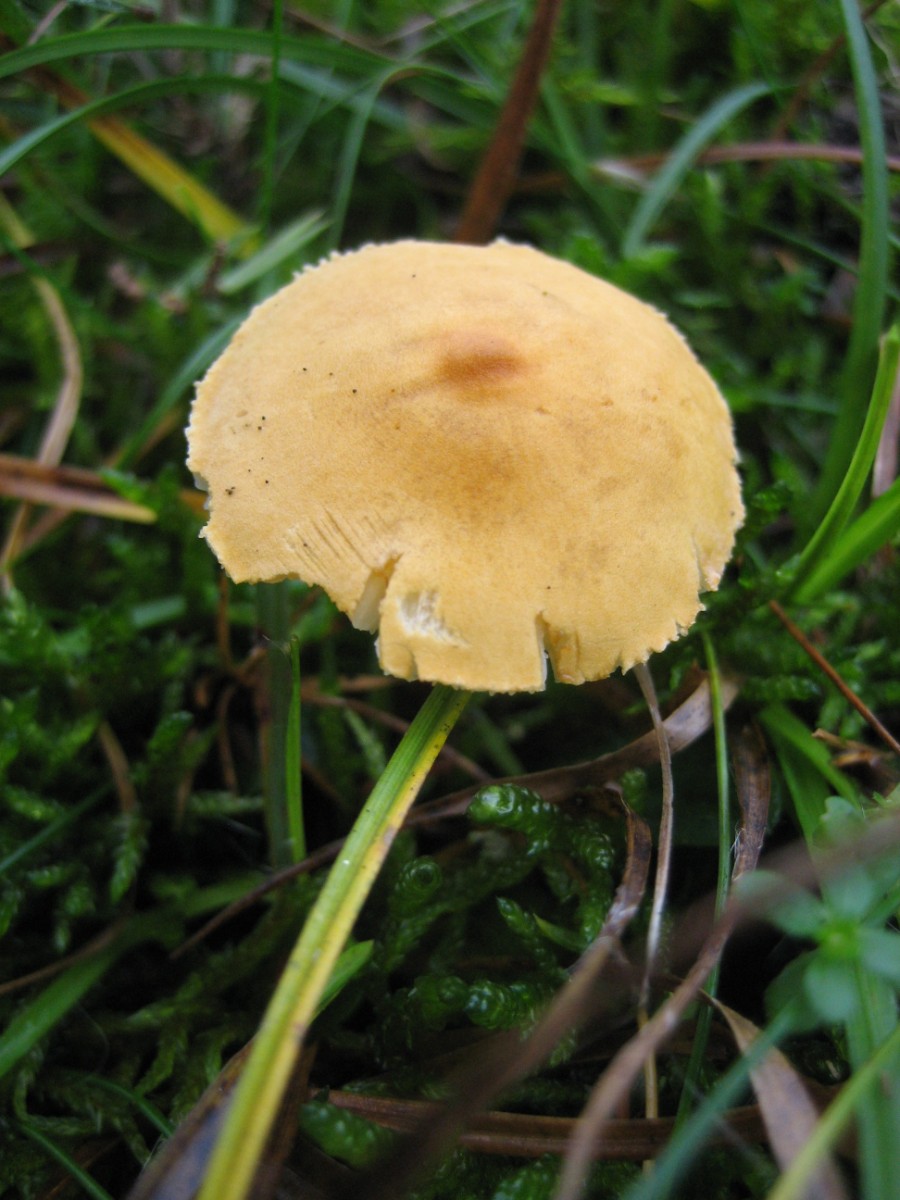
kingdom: Fungi
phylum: Basidiomycota
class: Agaricomycetes
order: Agaricales
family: Tricholomataceae
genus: Cystoderma
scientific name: Cystoderma amianthinum
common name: okkergul grynhat
